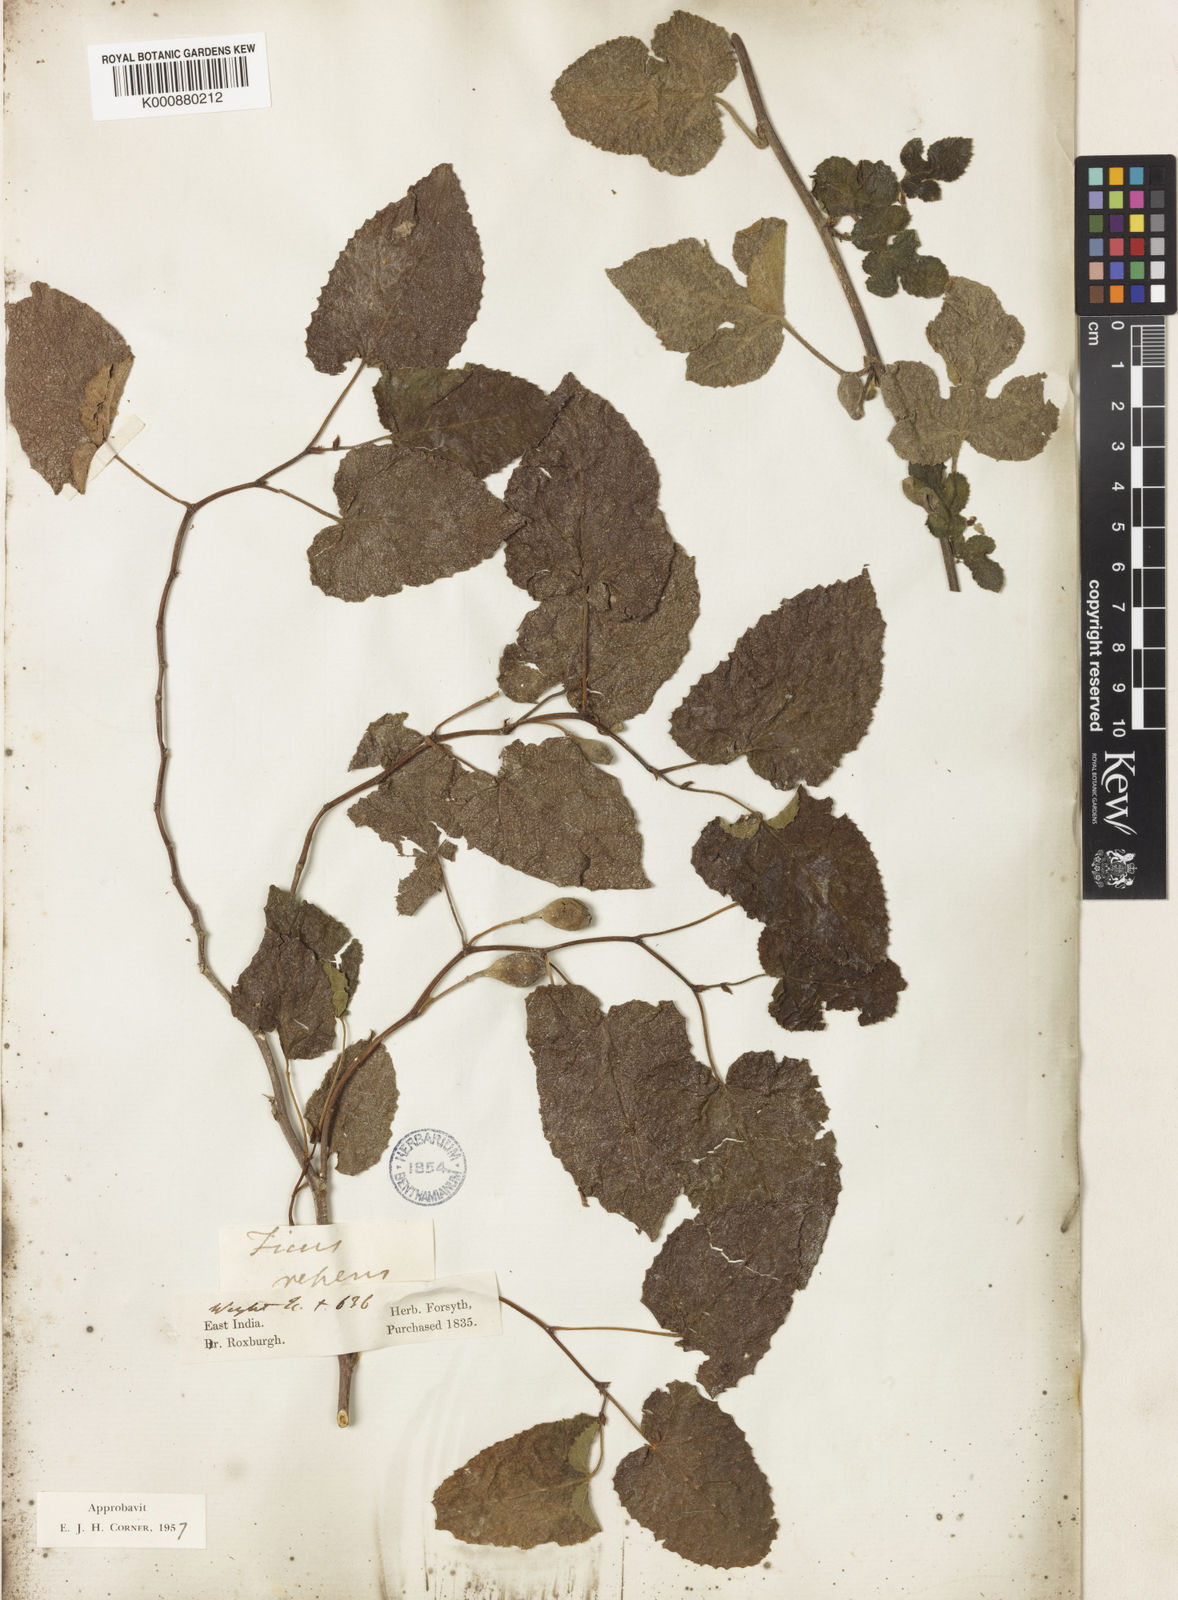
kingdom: Plantae
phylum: Tracheophyta
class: Magnoliopsida
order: Rosales
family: Moraceae
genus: Ficus
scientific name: Ficus assamica
